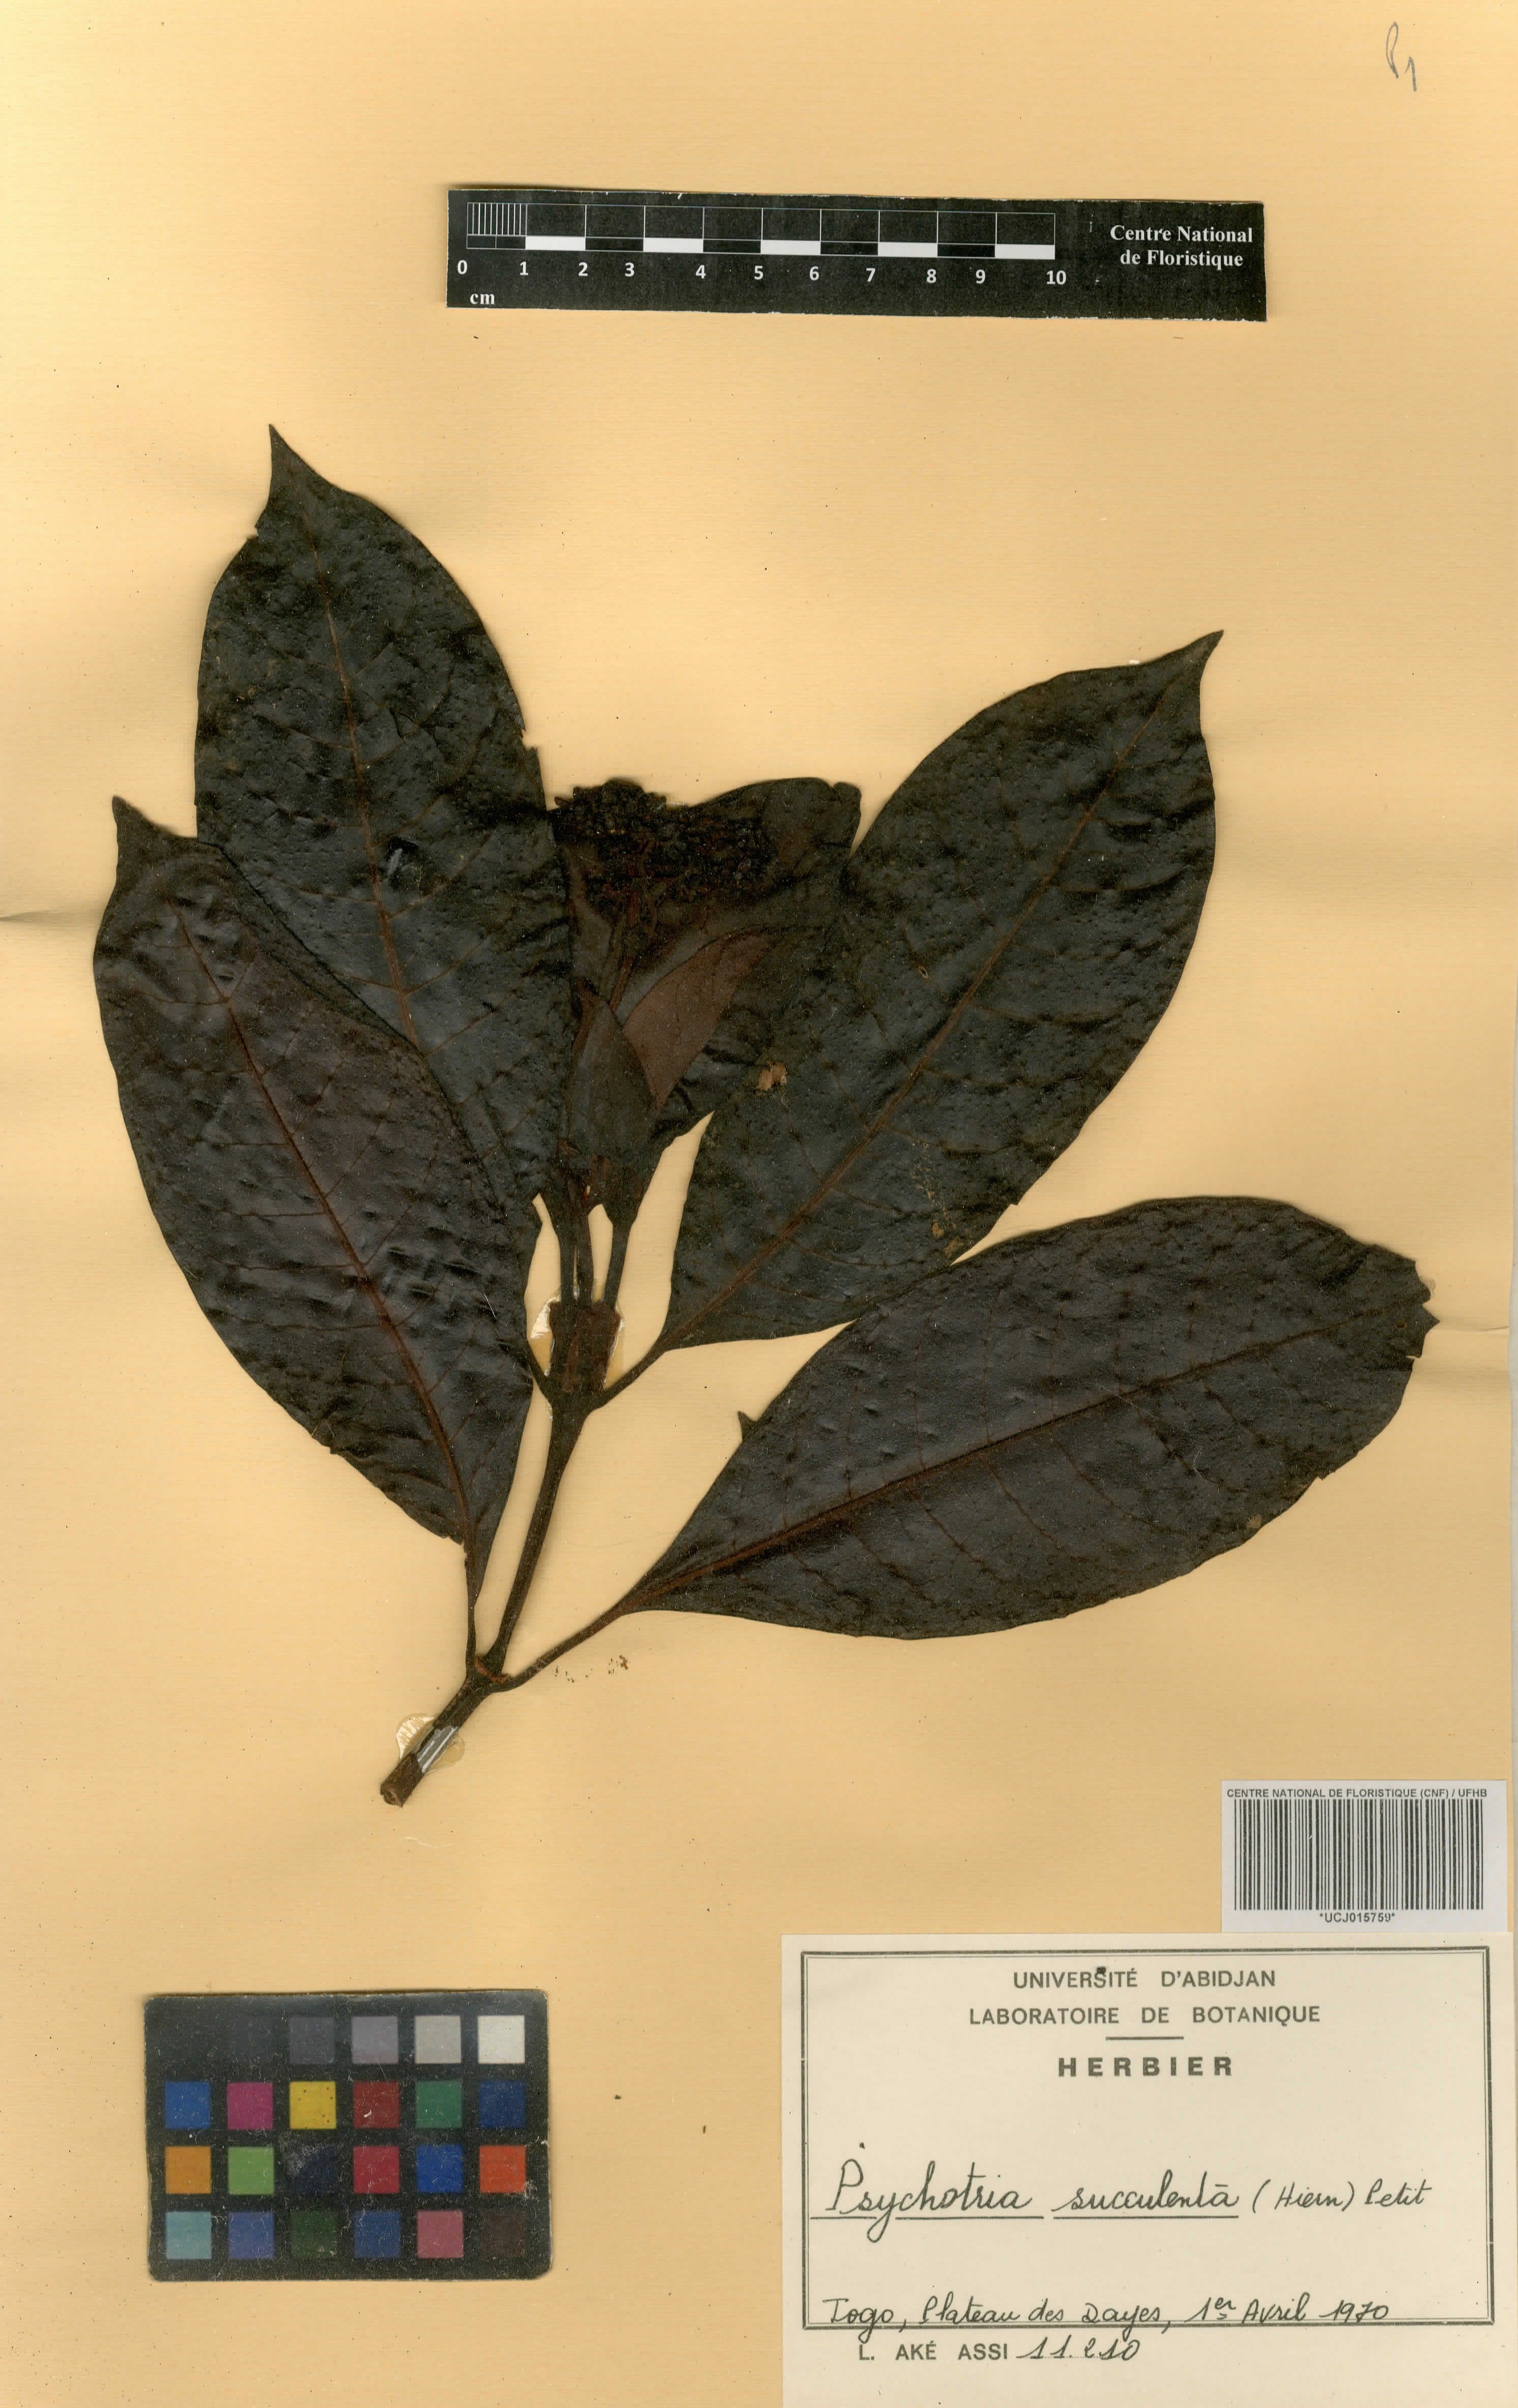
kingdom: Plantae
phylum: Tracheophyta
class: Magnoliopsida
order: Gentianales
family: Rubiaceae
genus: Psychotria
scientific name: Psychotria succulenta
